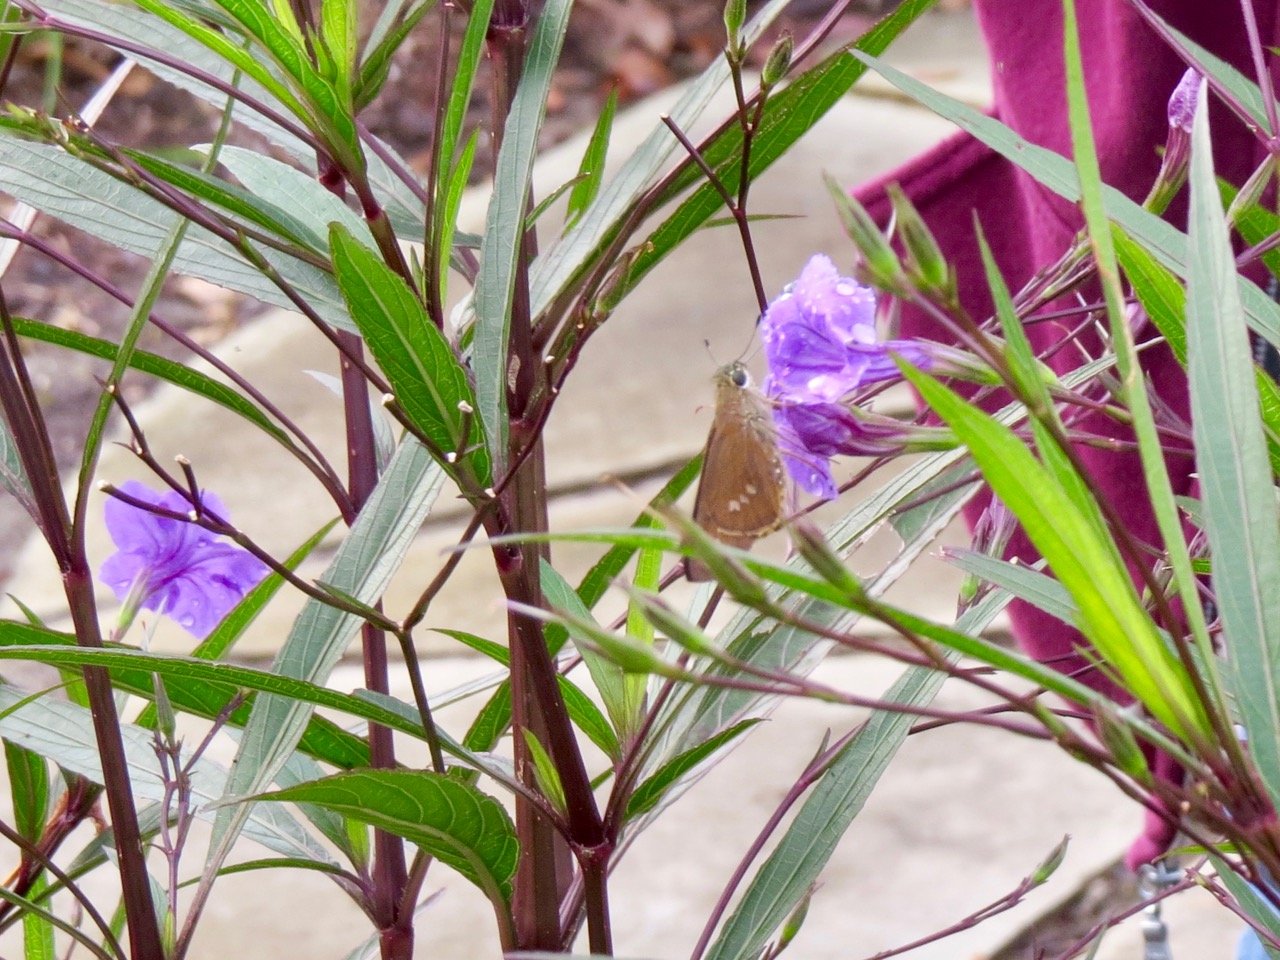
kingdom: Animalia
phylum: Arthropoda
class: Insecta
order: Lepidoptera
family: Hesperiidae
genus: Calpodes
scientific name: Calpodes ethlius
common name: Brazilian Skipper
